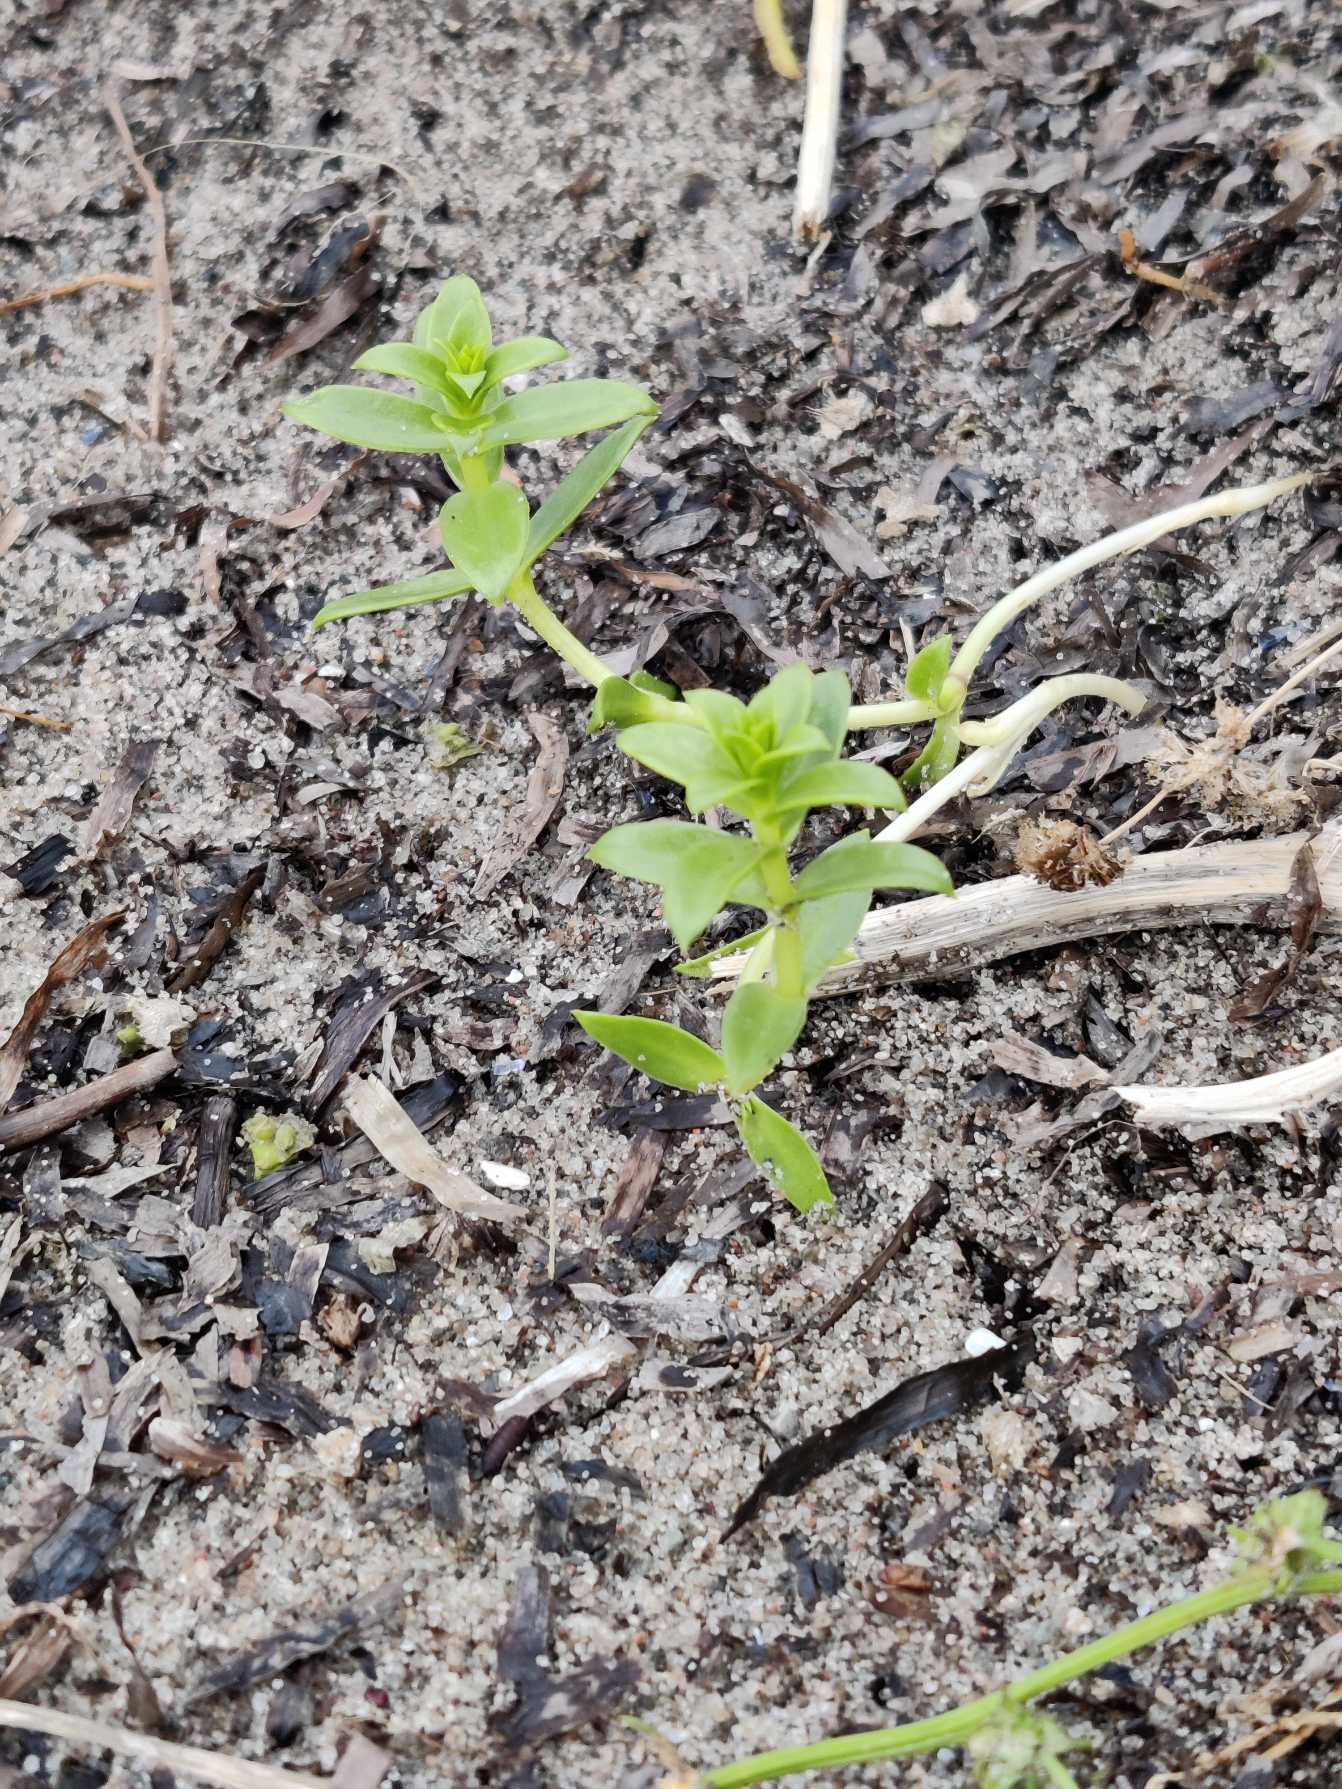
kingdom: Plantae
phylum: Tracheophyta
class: Magnoliopsida
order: Caryophyllales
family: Caryophyllaceae
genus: Honckenya
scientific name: Honckenya peploides
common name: Strandarve
